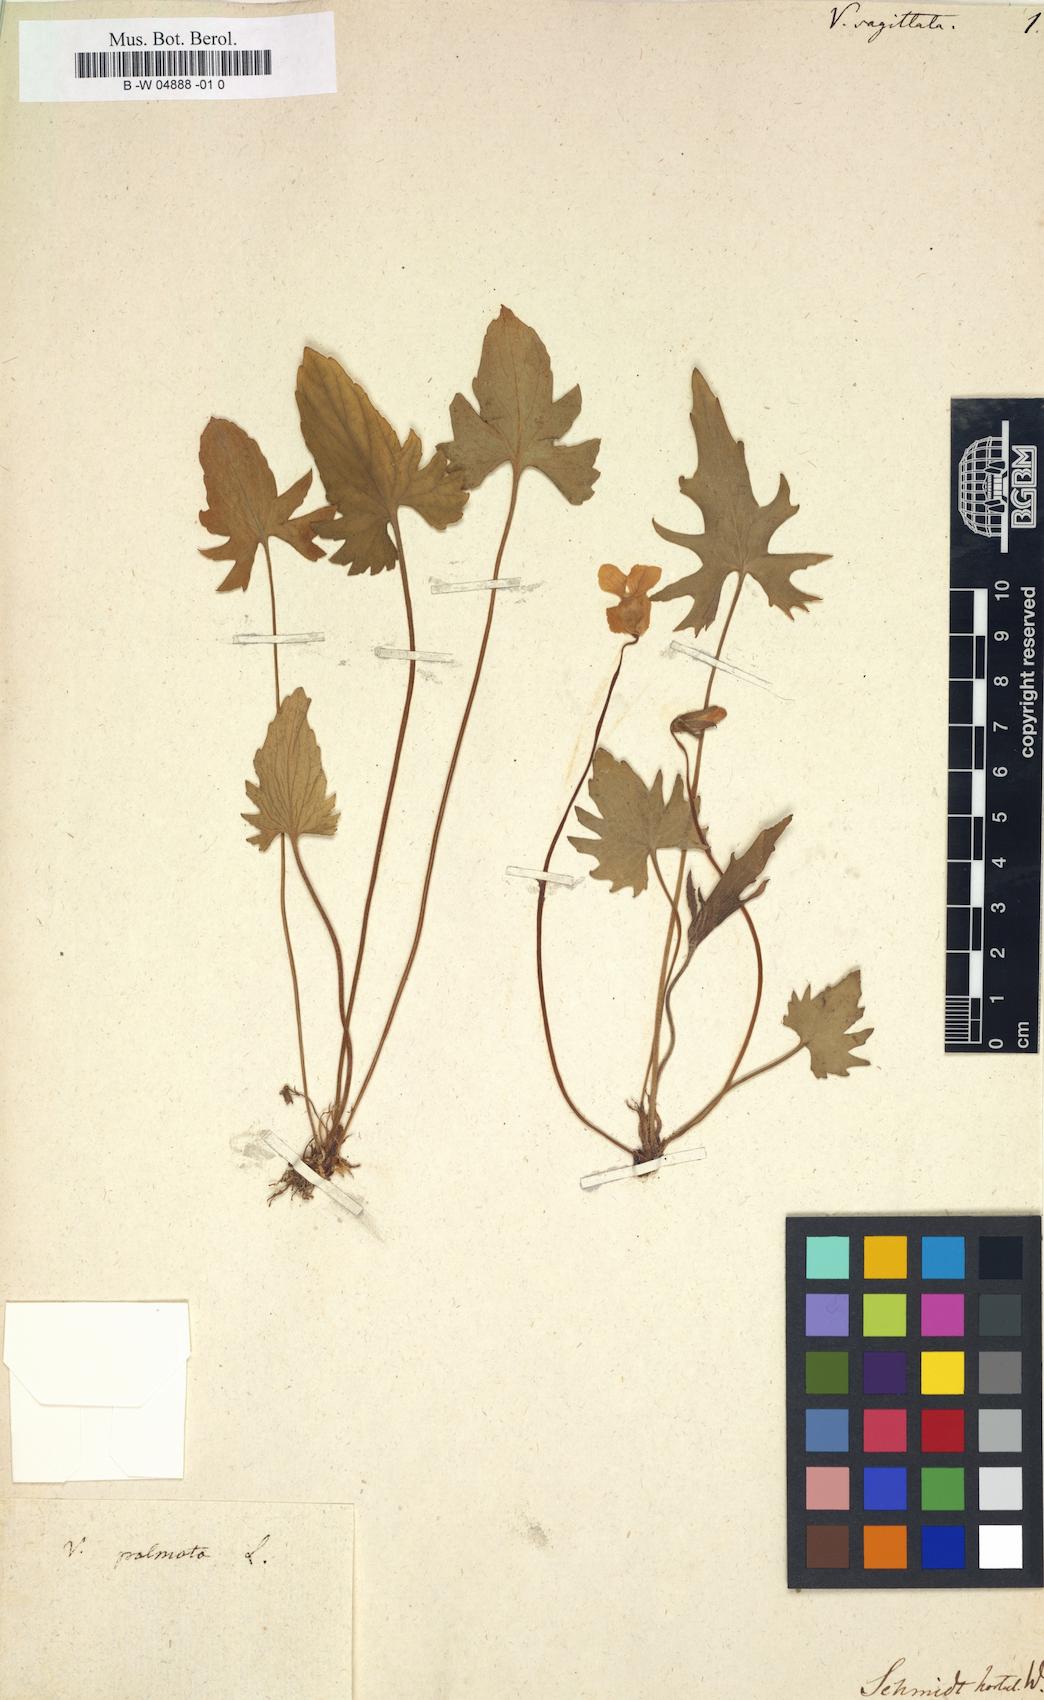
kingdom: Plantae
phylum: Tracheophyta
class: Magnoliopsida
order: Malpighiales
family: Violaceae
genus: Viola
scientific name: Viola sagittata
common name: Arrowhead violet
